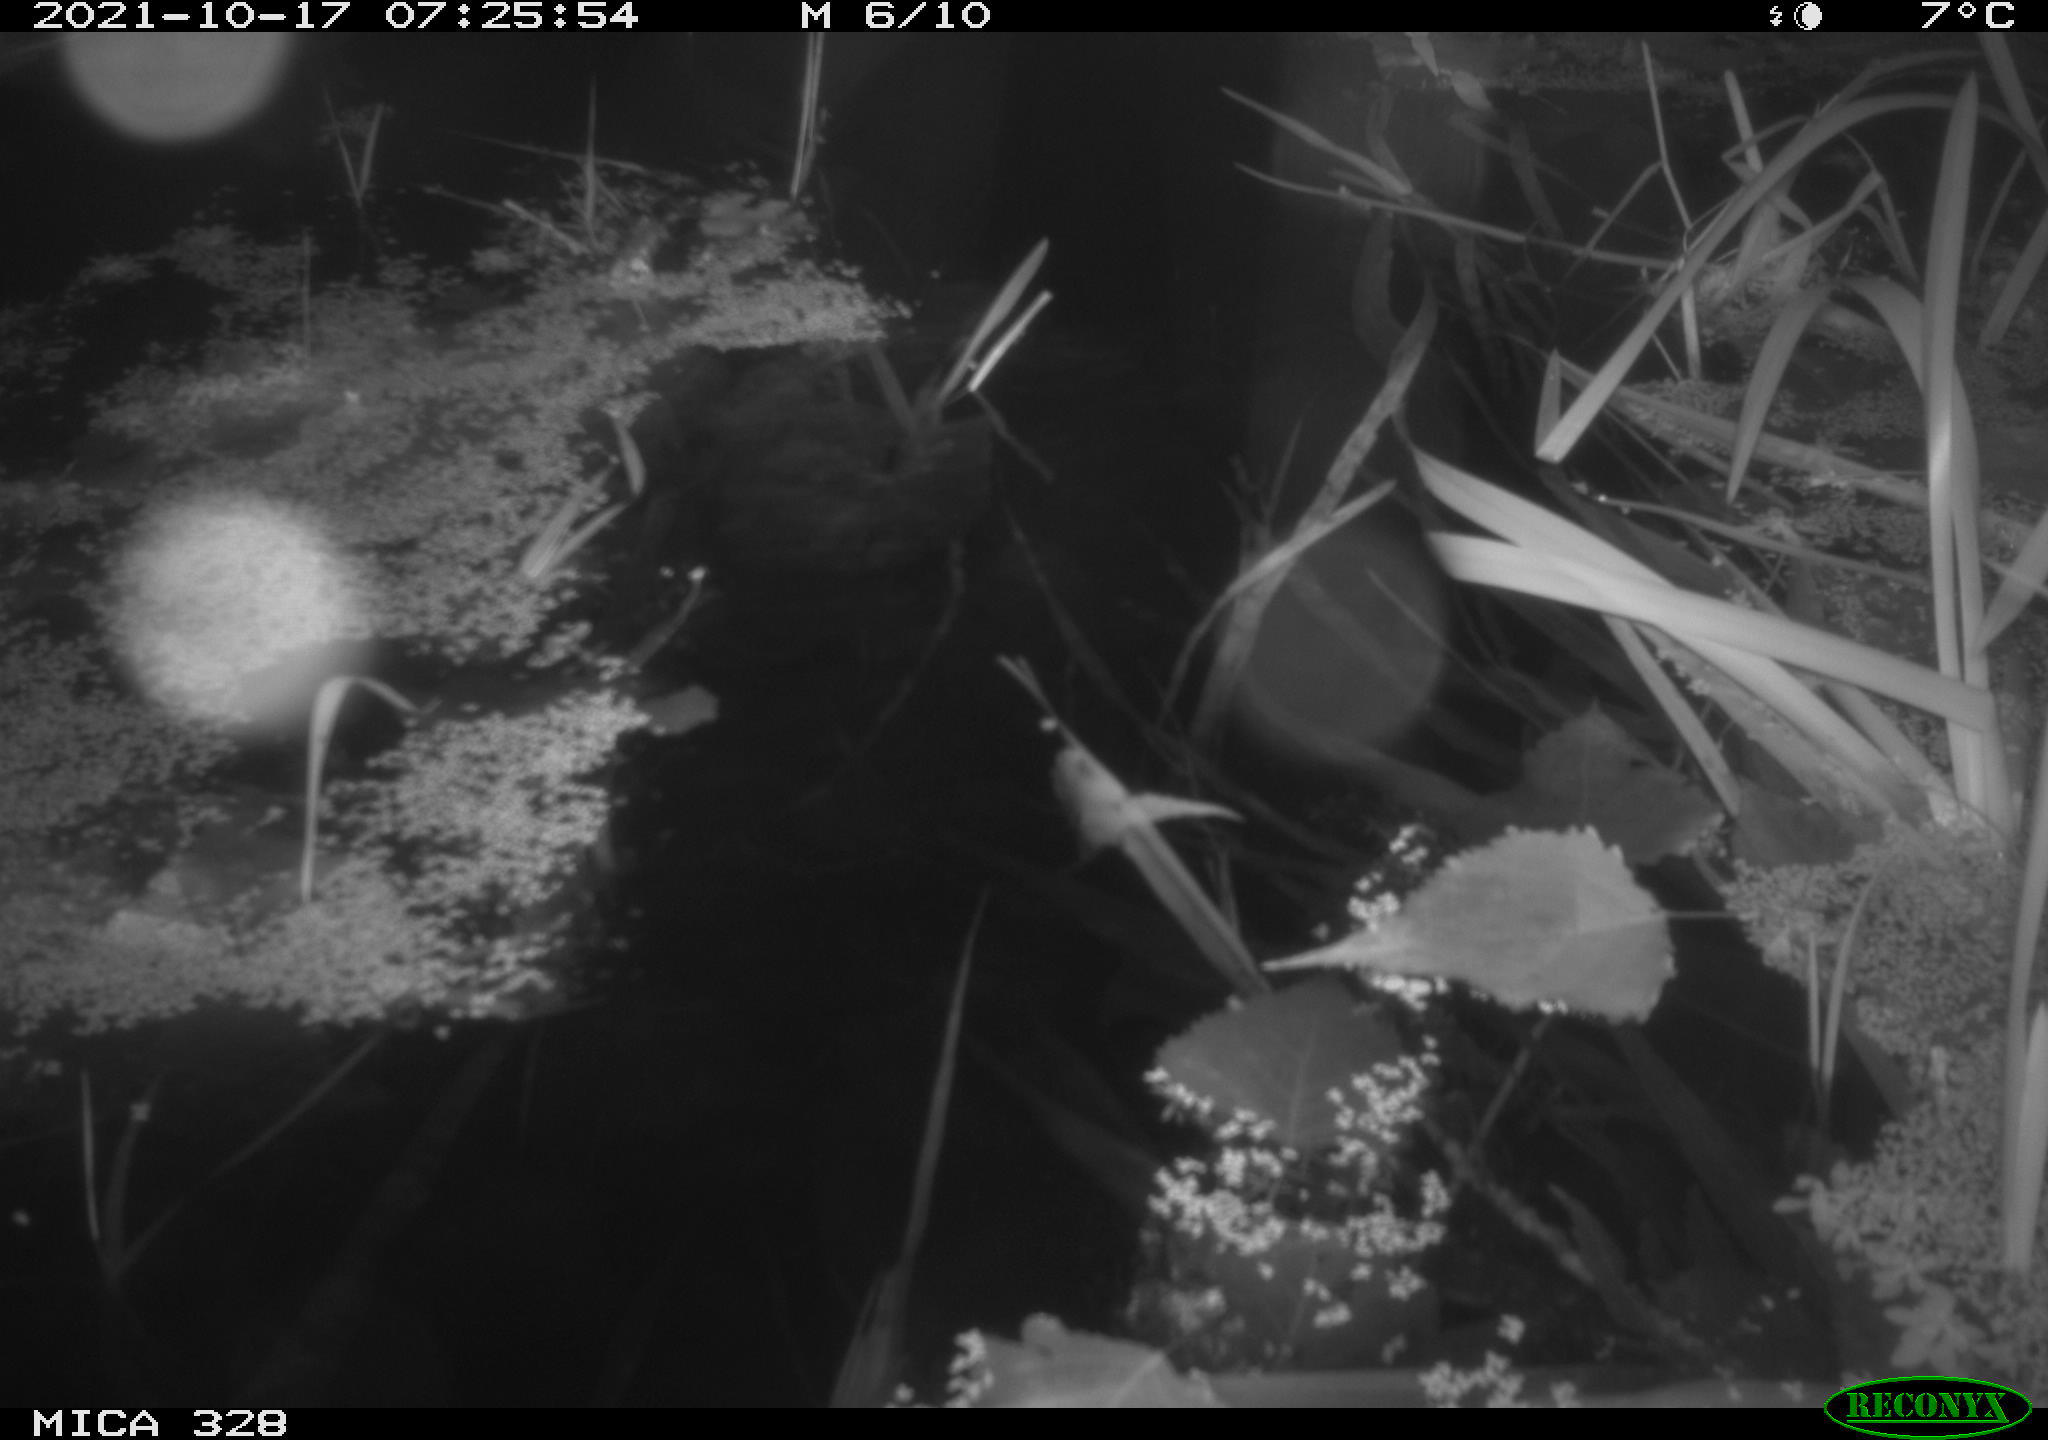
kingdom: Animalia
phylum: Chordata
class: Mammalia
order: Rodentia
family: Cricetidae
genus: Ondatra
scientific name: Ondatra zibethicus
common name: Muskrat
